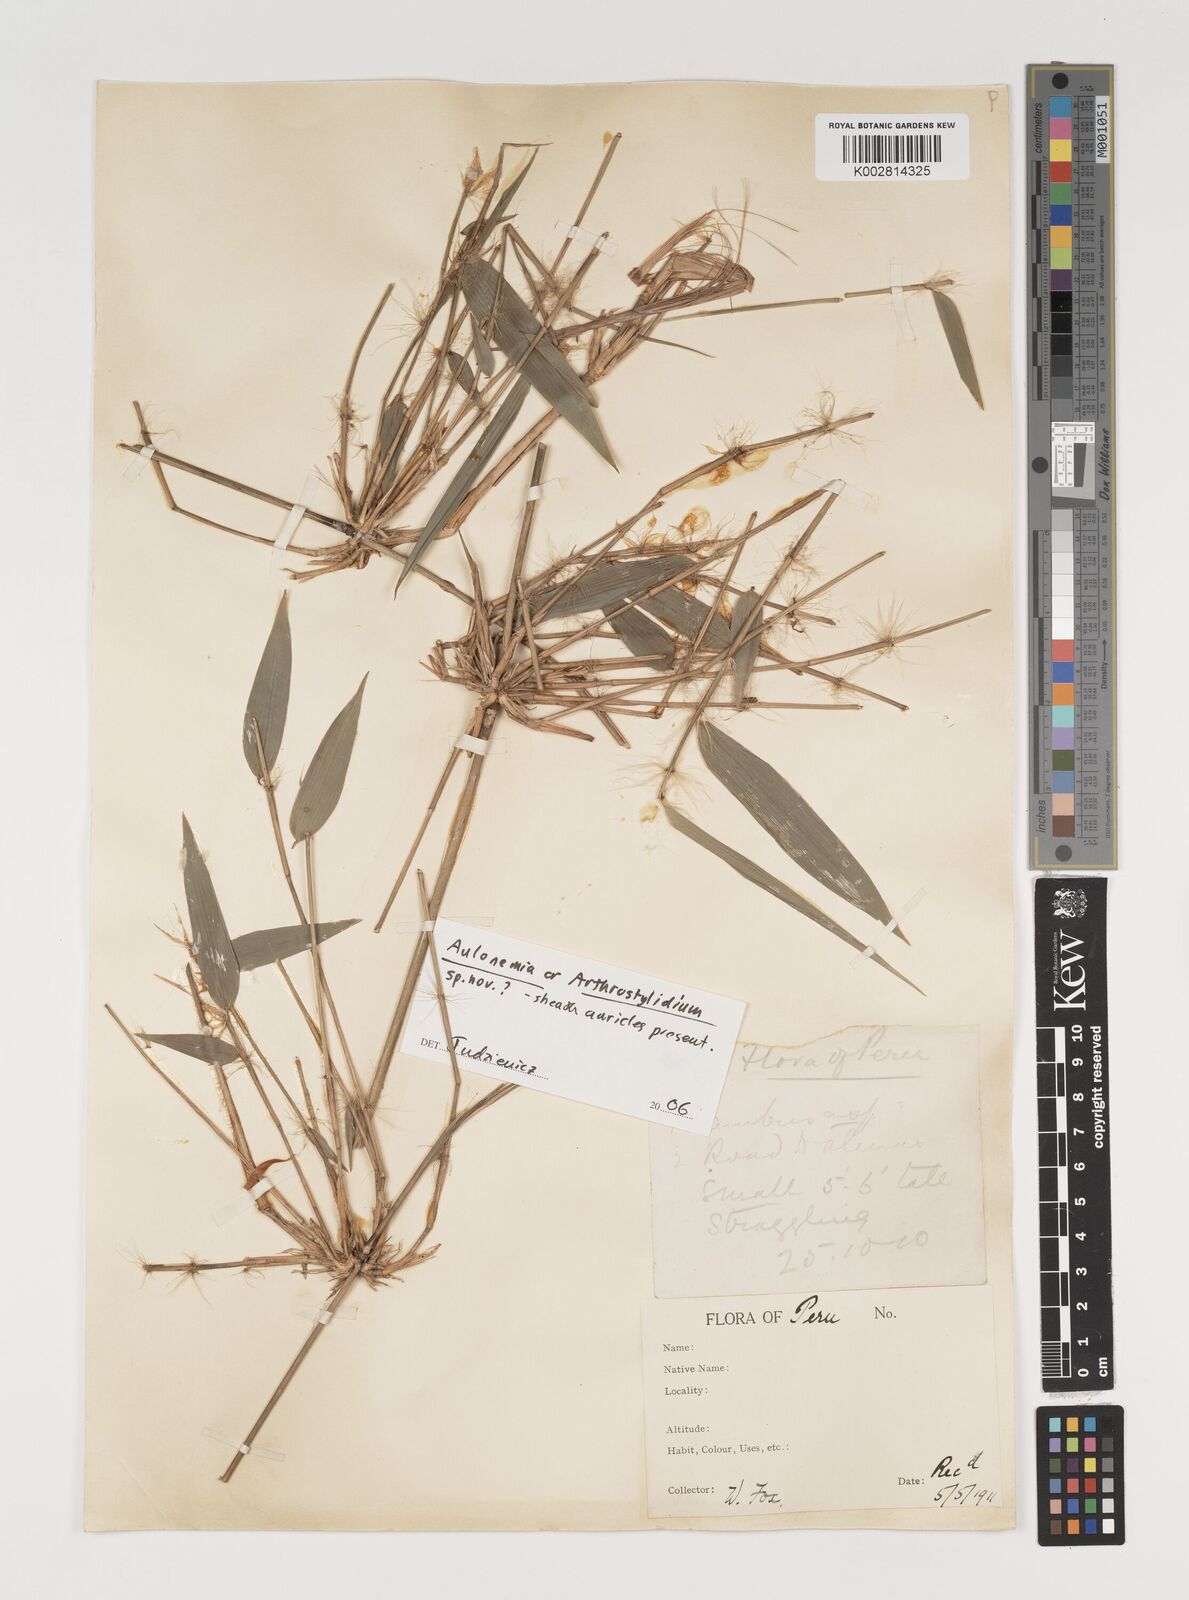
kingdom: Plantae
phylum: Tracheophyta
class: Liliopsida
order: Poales
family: Poaceae
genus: Arthrostylidium
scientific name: Arthrostylidium
